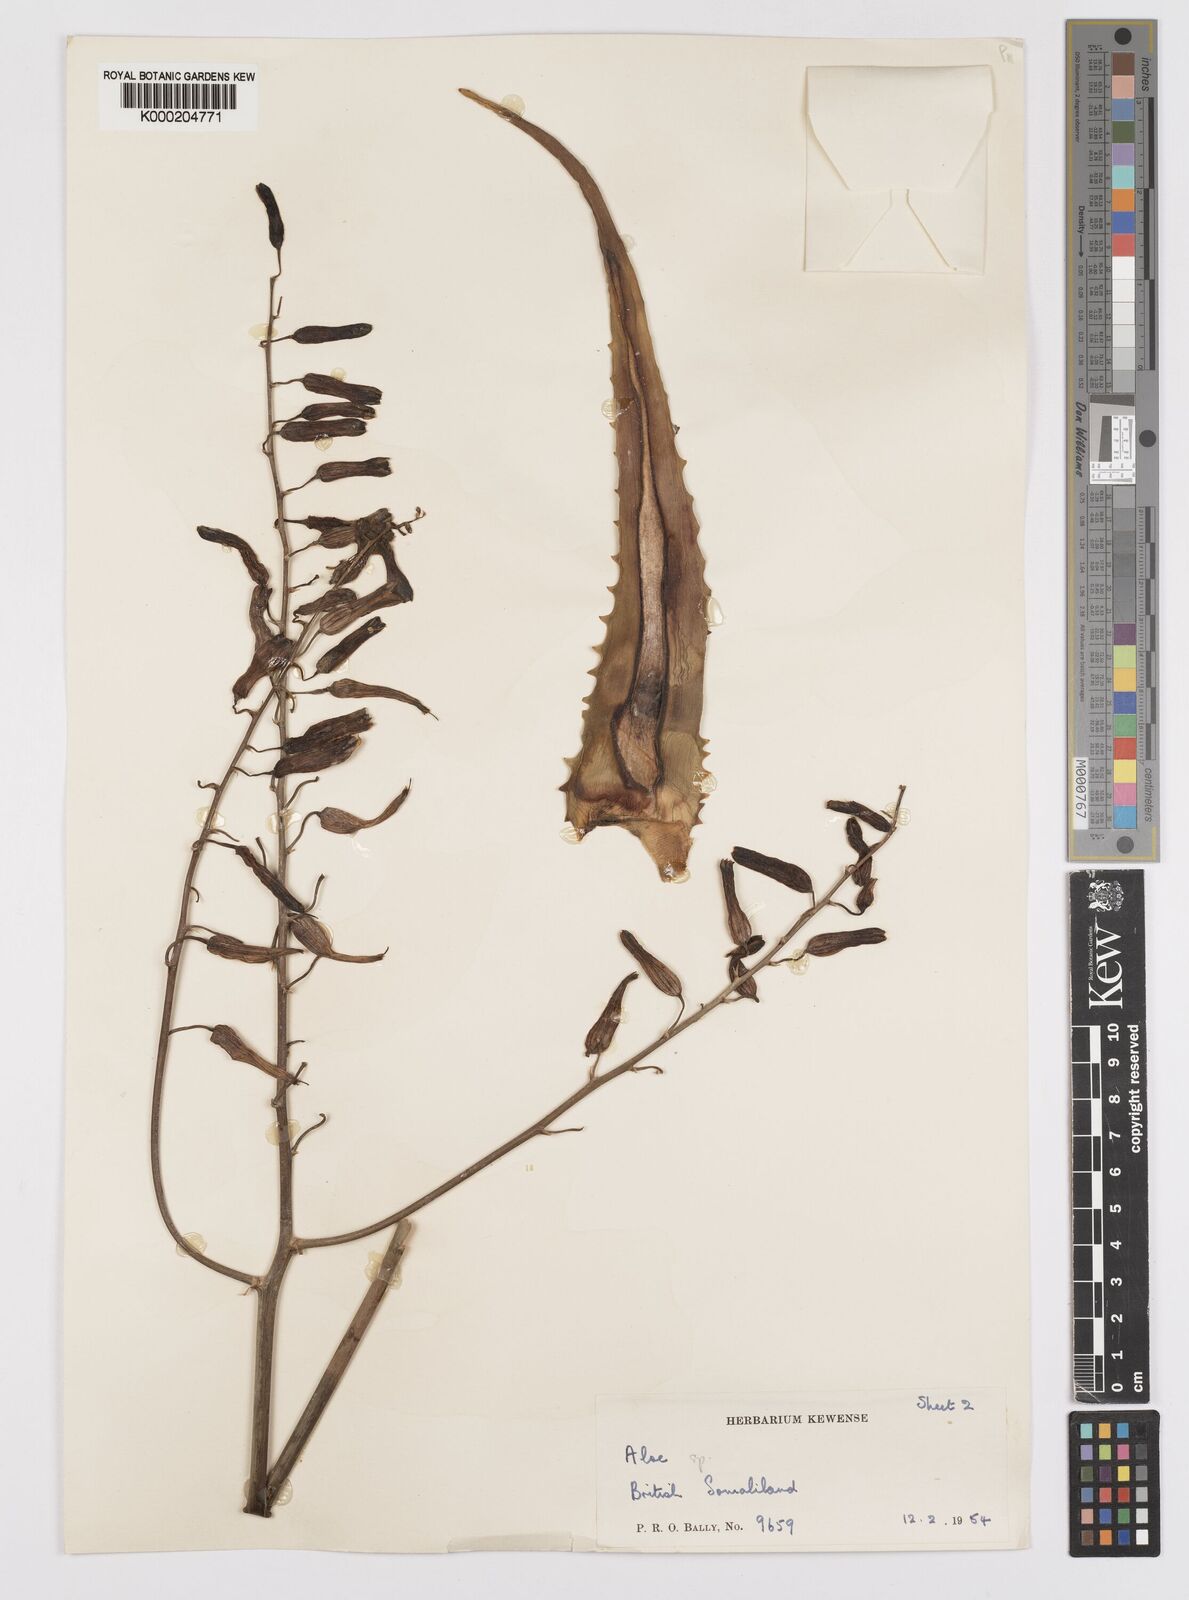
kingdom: Plantae
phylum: Tracheophyta
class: Liliopsida
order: Asparagales
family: Asphodelaceae
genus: Aloe
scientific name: Aloe hildebrandtii
